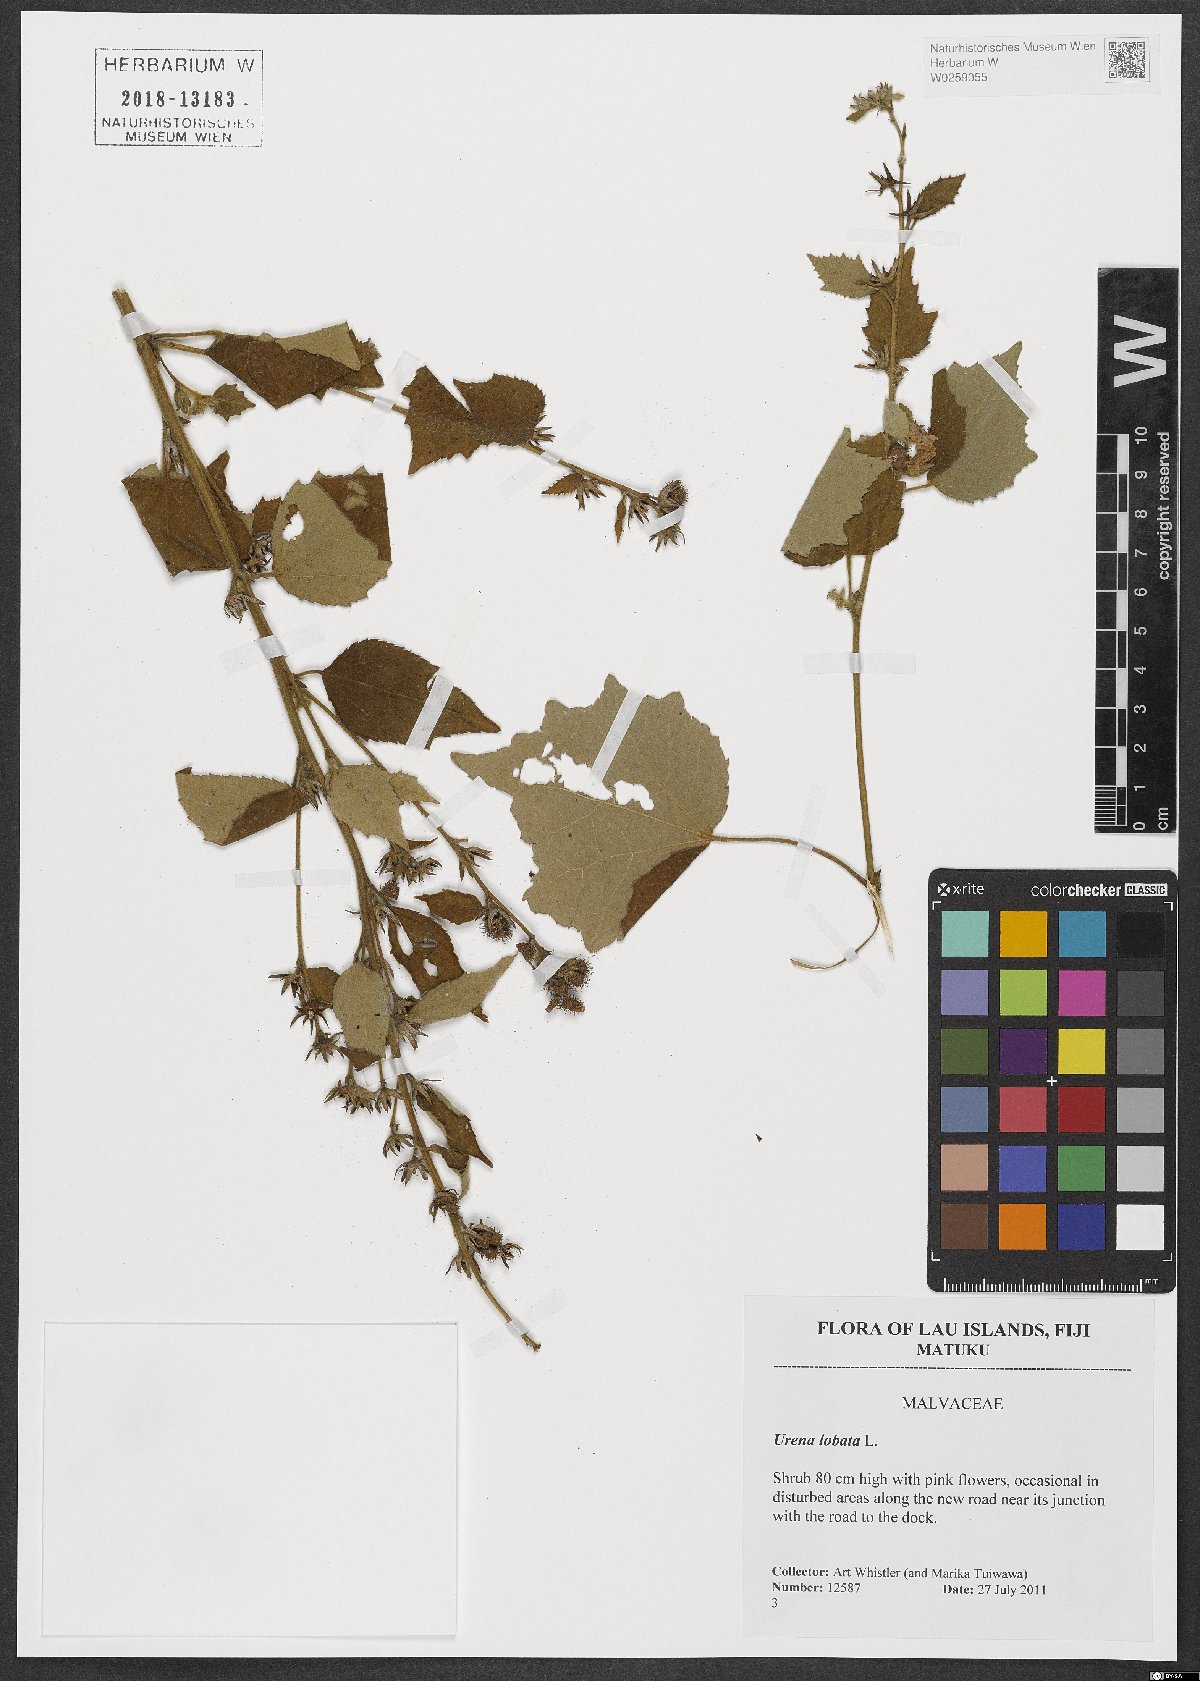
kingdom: Plantae
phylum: Tracheophyta
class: Magnoliopsida
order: Malvales
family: Malvaceae
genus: Urena
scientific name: Urena lobata
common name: Caesarweed
